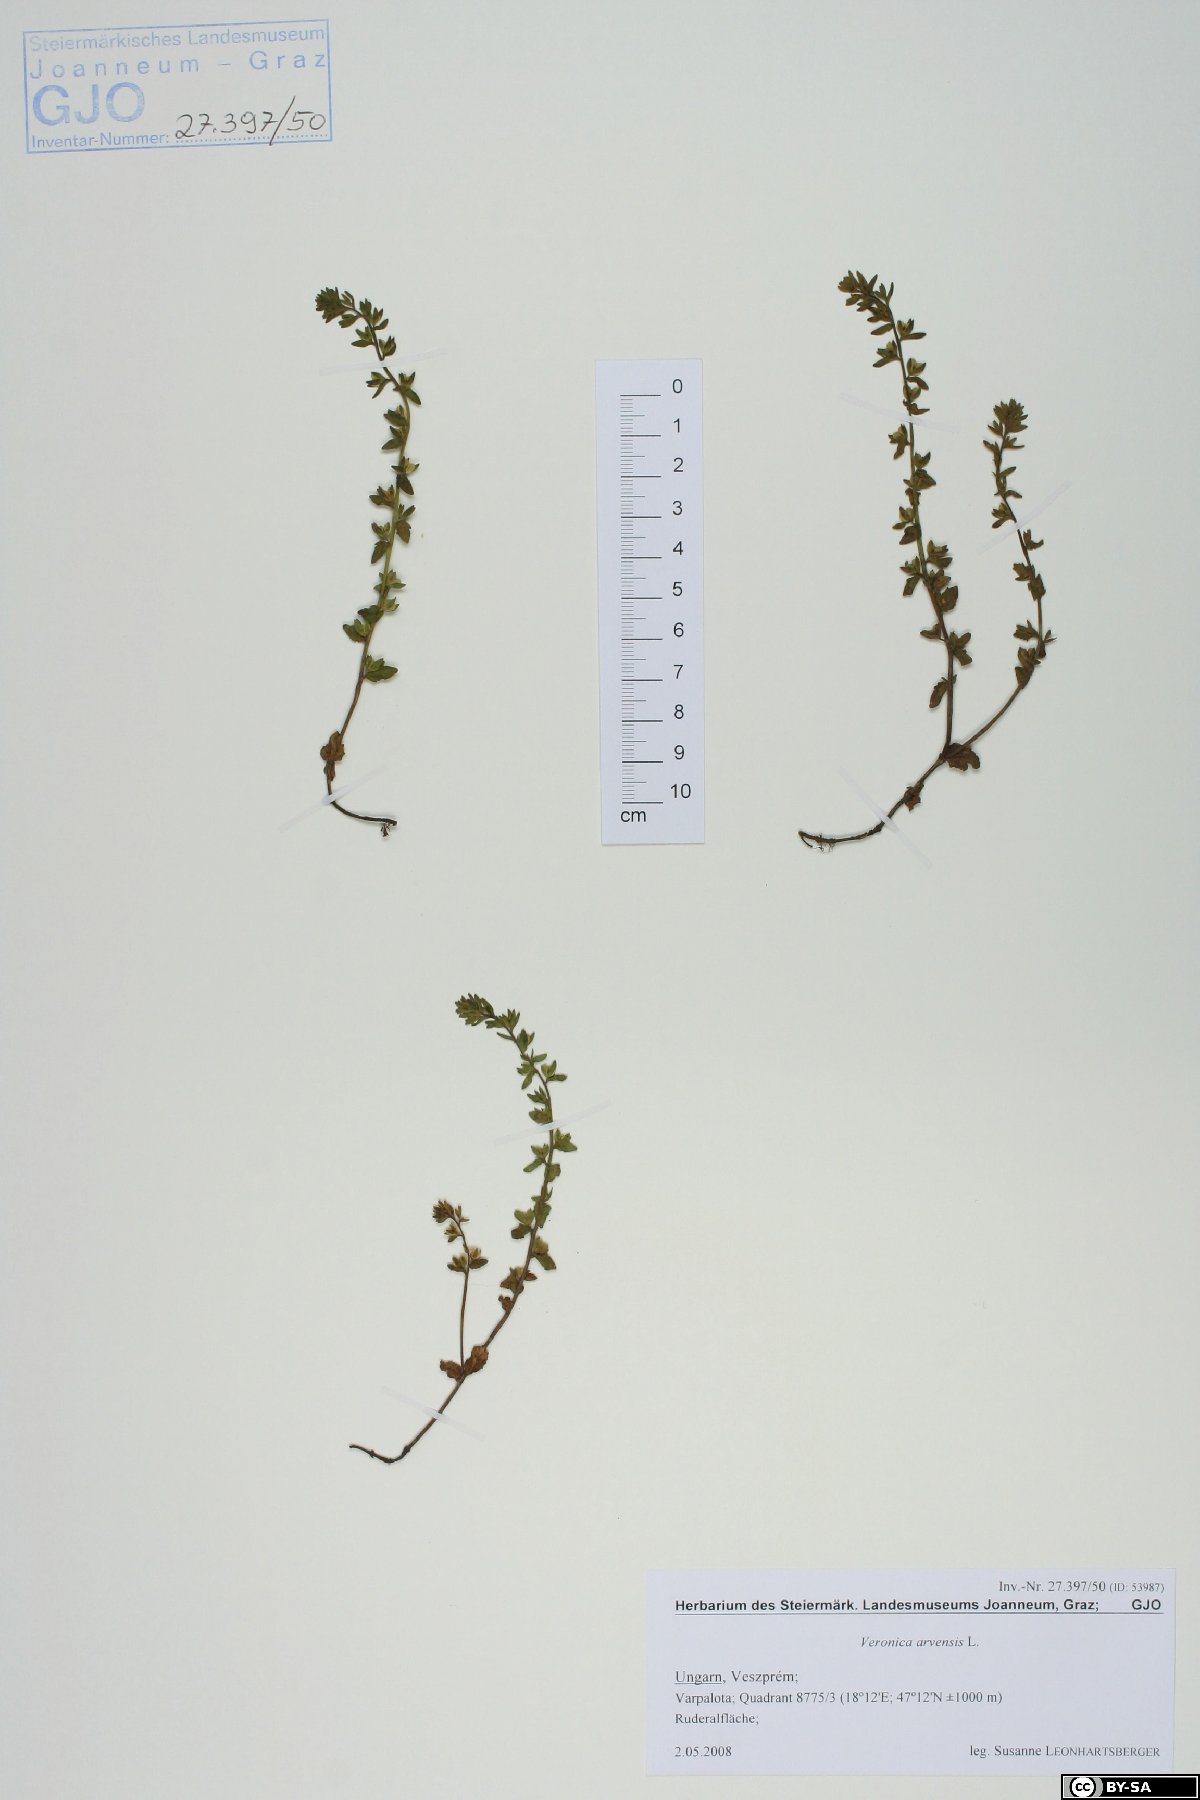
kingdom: Plantae
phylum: Tracheophyta
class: Magnoliopsida
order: Lamiales
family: Plantaginaceae
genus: Veronica
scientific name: Veronica arvensis
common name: Corn speedwell
